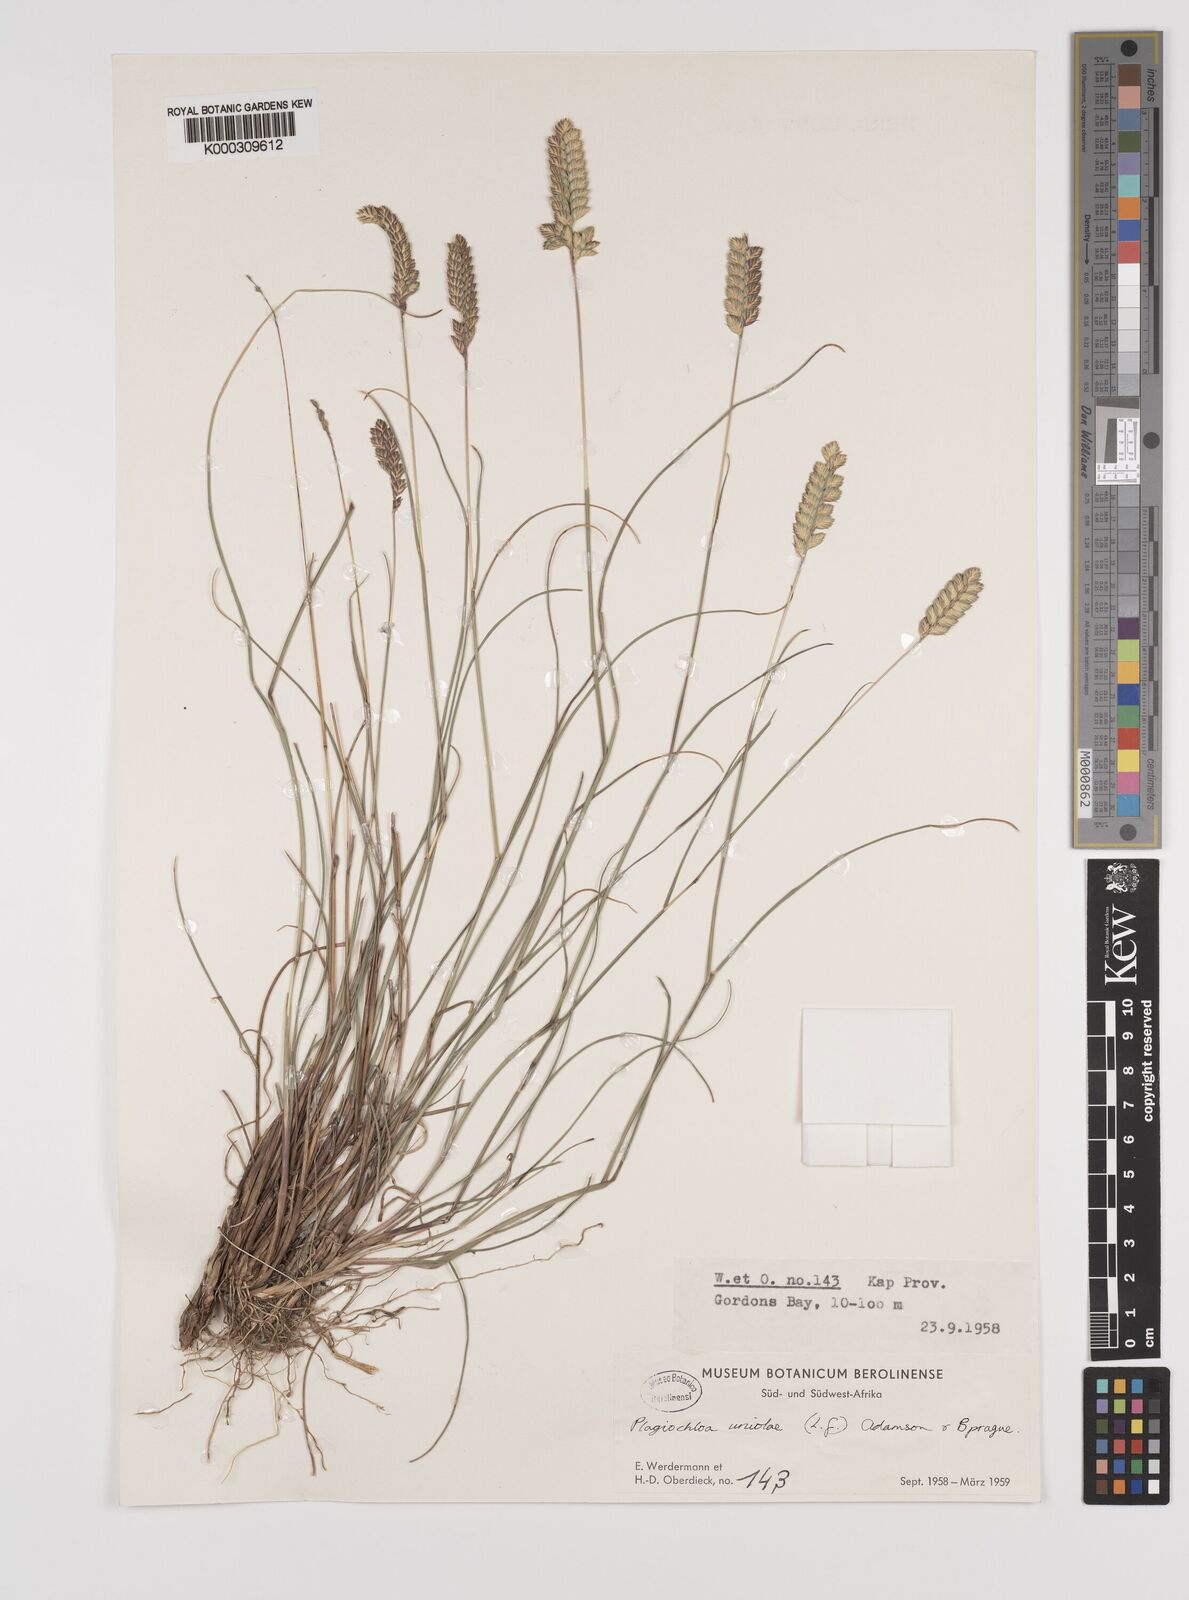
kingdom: Plantae
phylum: Tracheophyta
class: Liliopsida
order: Poales
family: Poaceae
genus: Tribolium
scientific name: Tribolium uniolae
